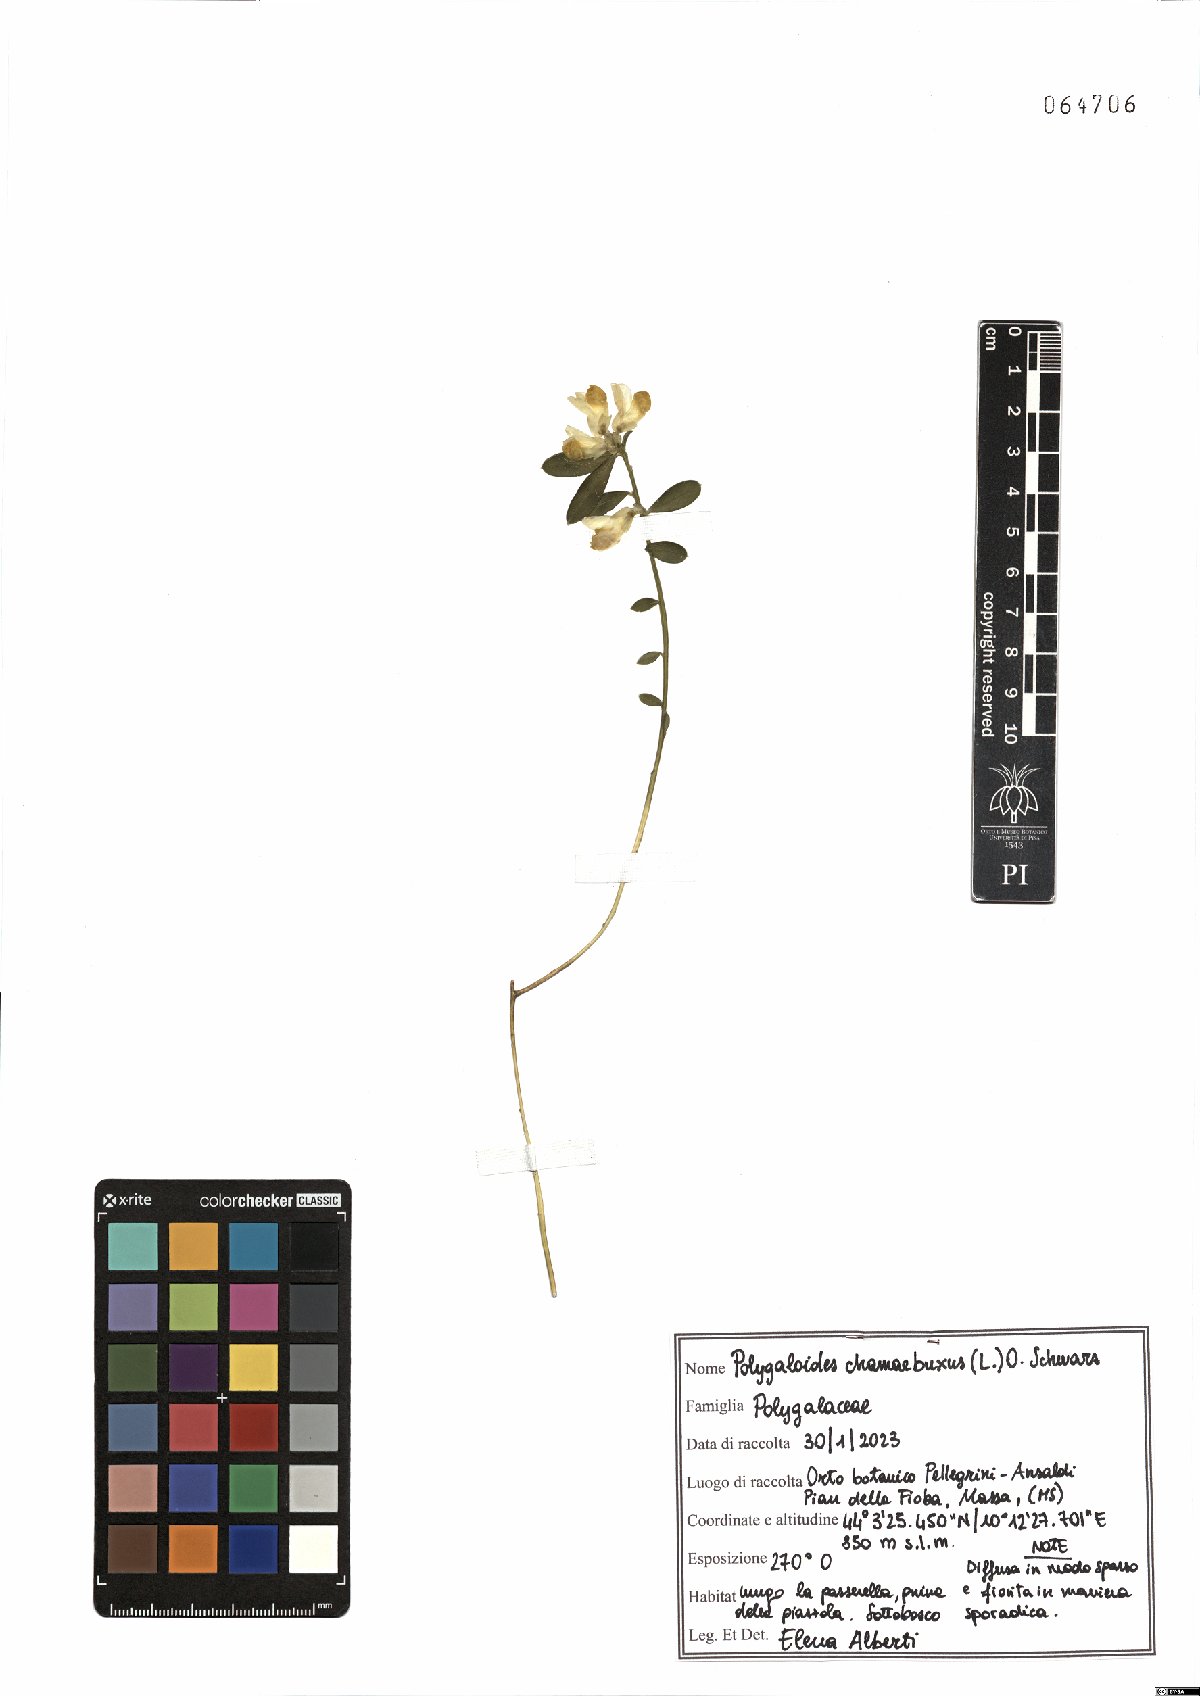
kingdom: Plantae
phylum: Tracheophyta
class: Magnoliopsida
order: Fabales
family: Polygalaceae
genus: Polygaloides
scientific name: Polygaloides chamaebuxus
